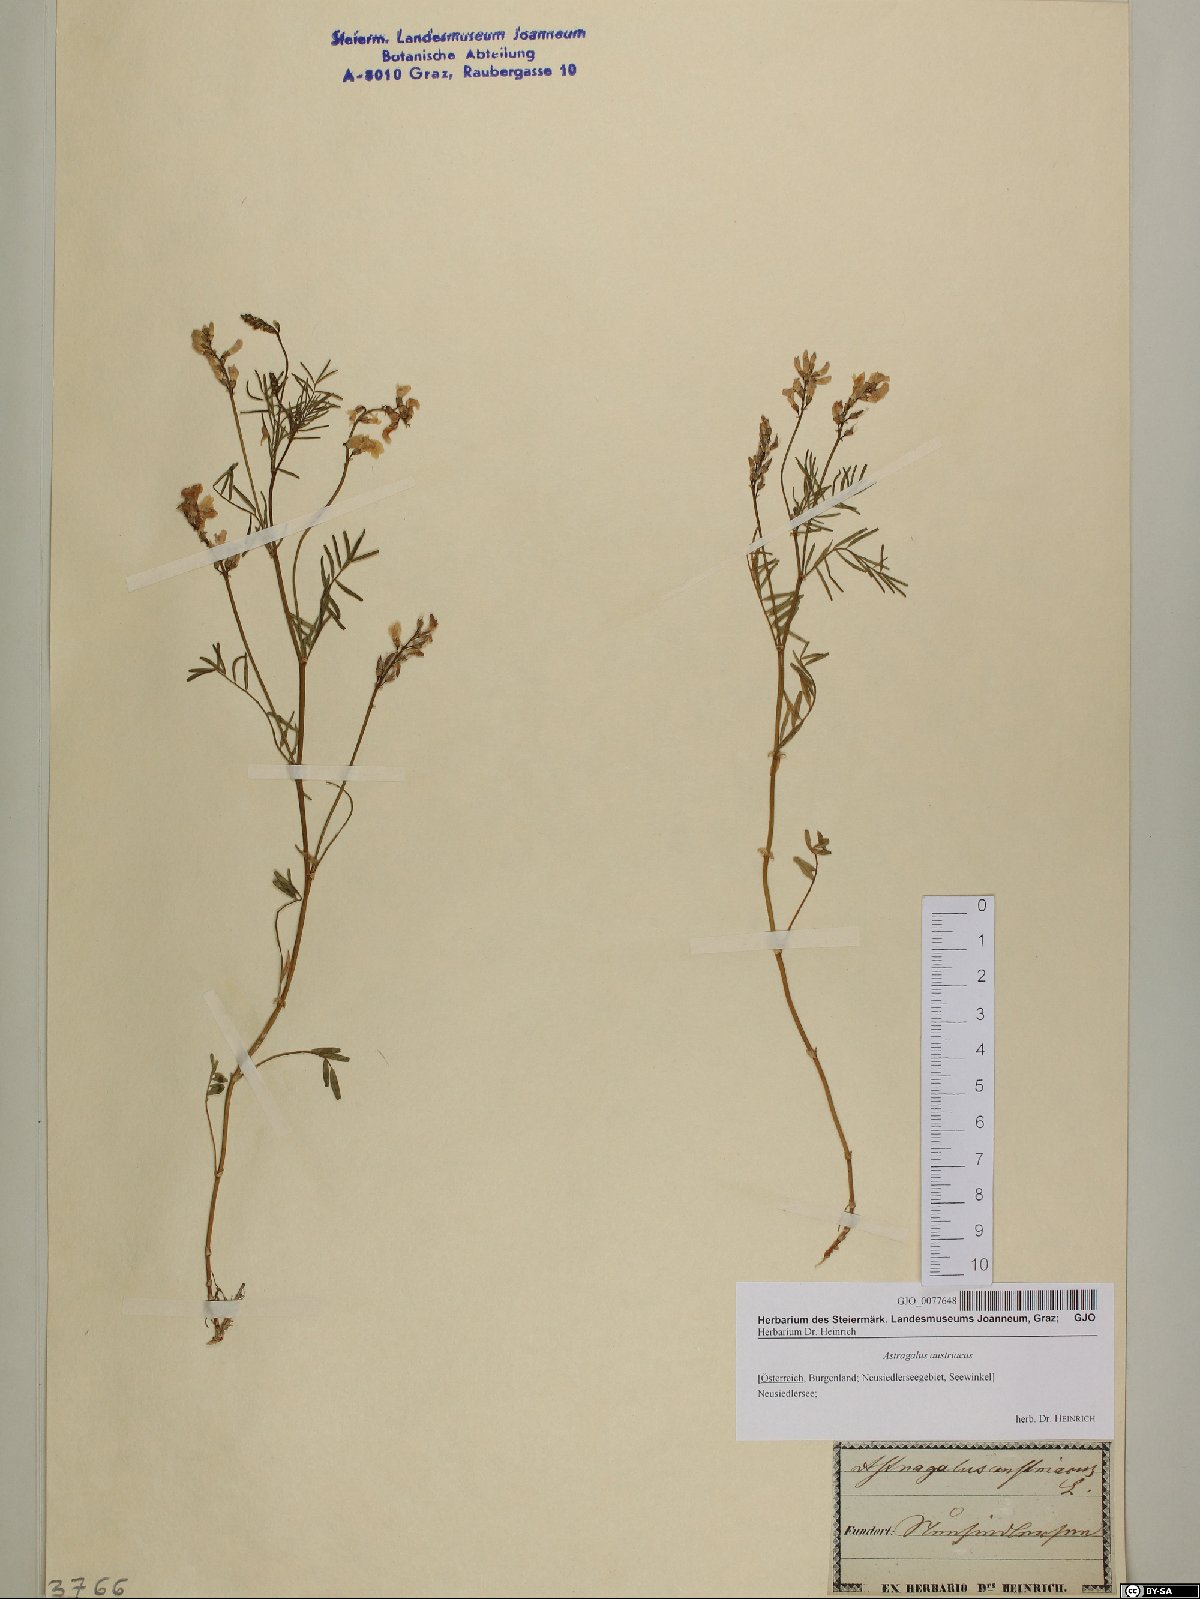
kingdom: Plantae
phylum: Tracheophyta
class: Magnoliopsida
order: Fabales
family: Fabaceae
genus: Astragalus
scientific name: Astragalus austriacus
